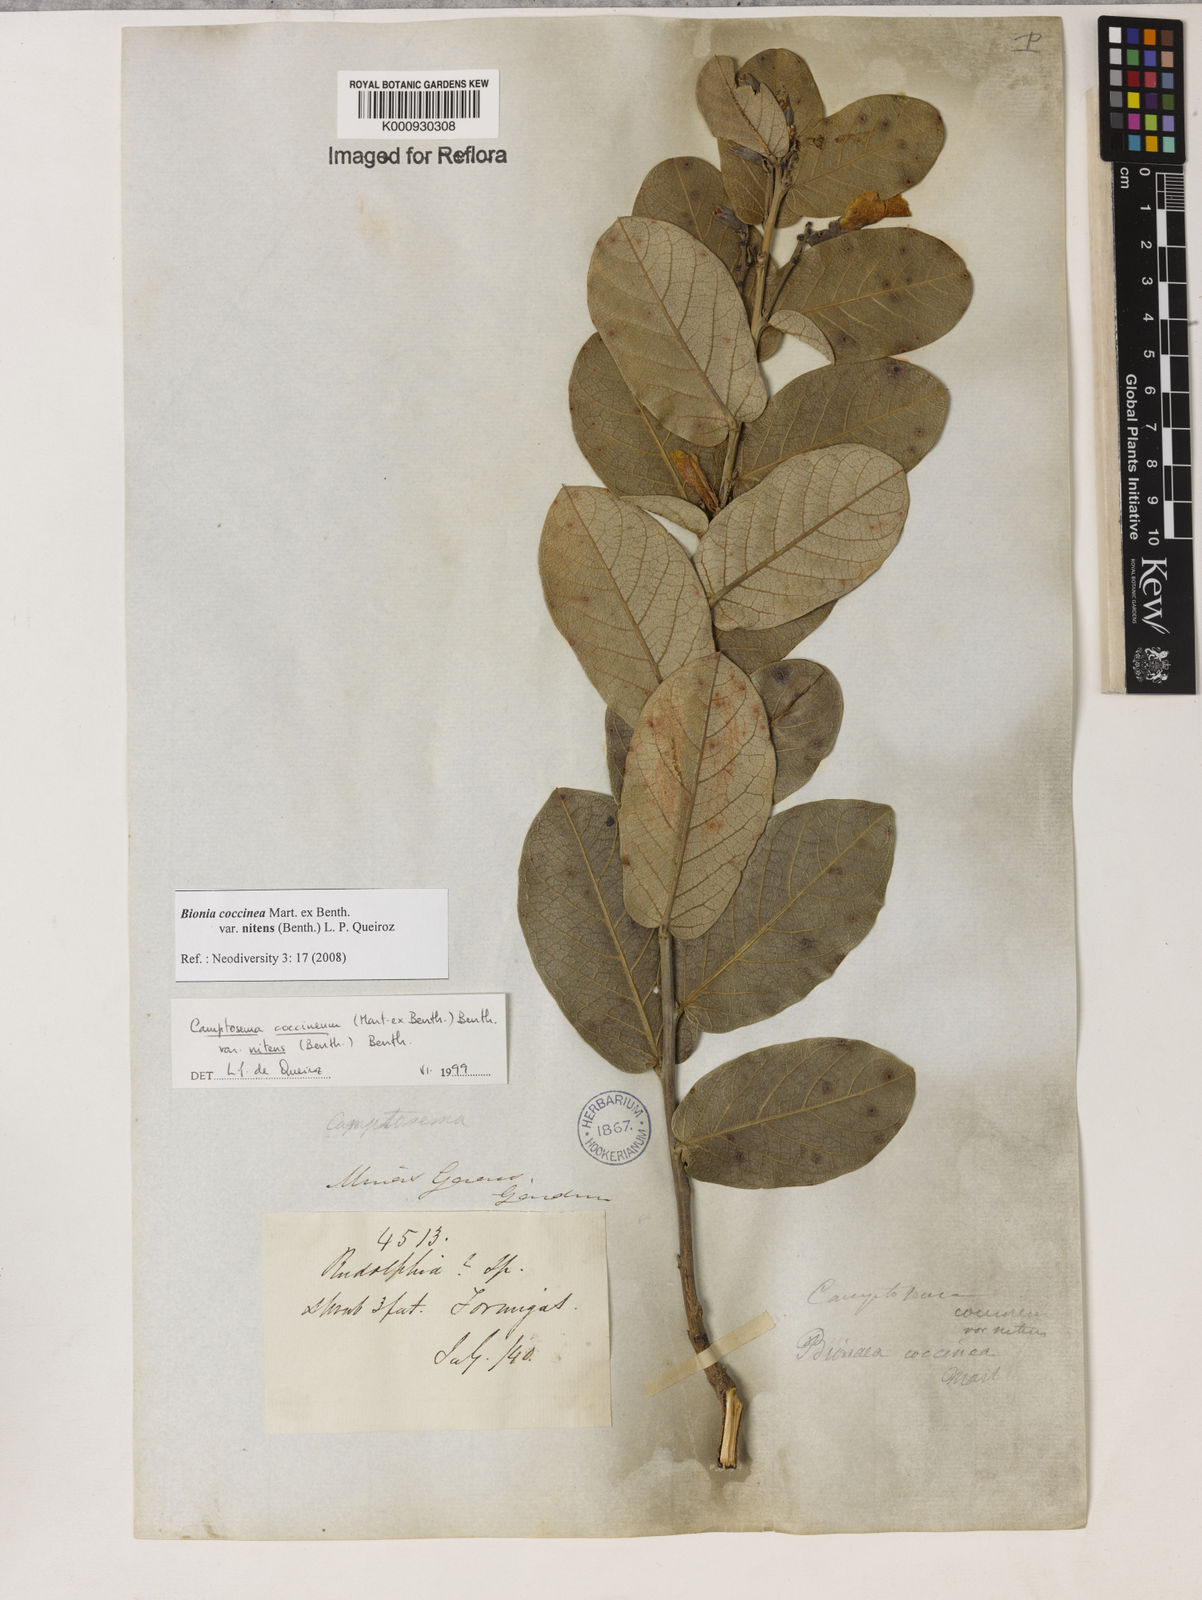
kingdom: Plantae
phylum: Tracheophyta
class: Magnoliopsida
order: Fabales
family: Fabaceae
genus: Camptosema
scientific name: Camptosema coccineum
